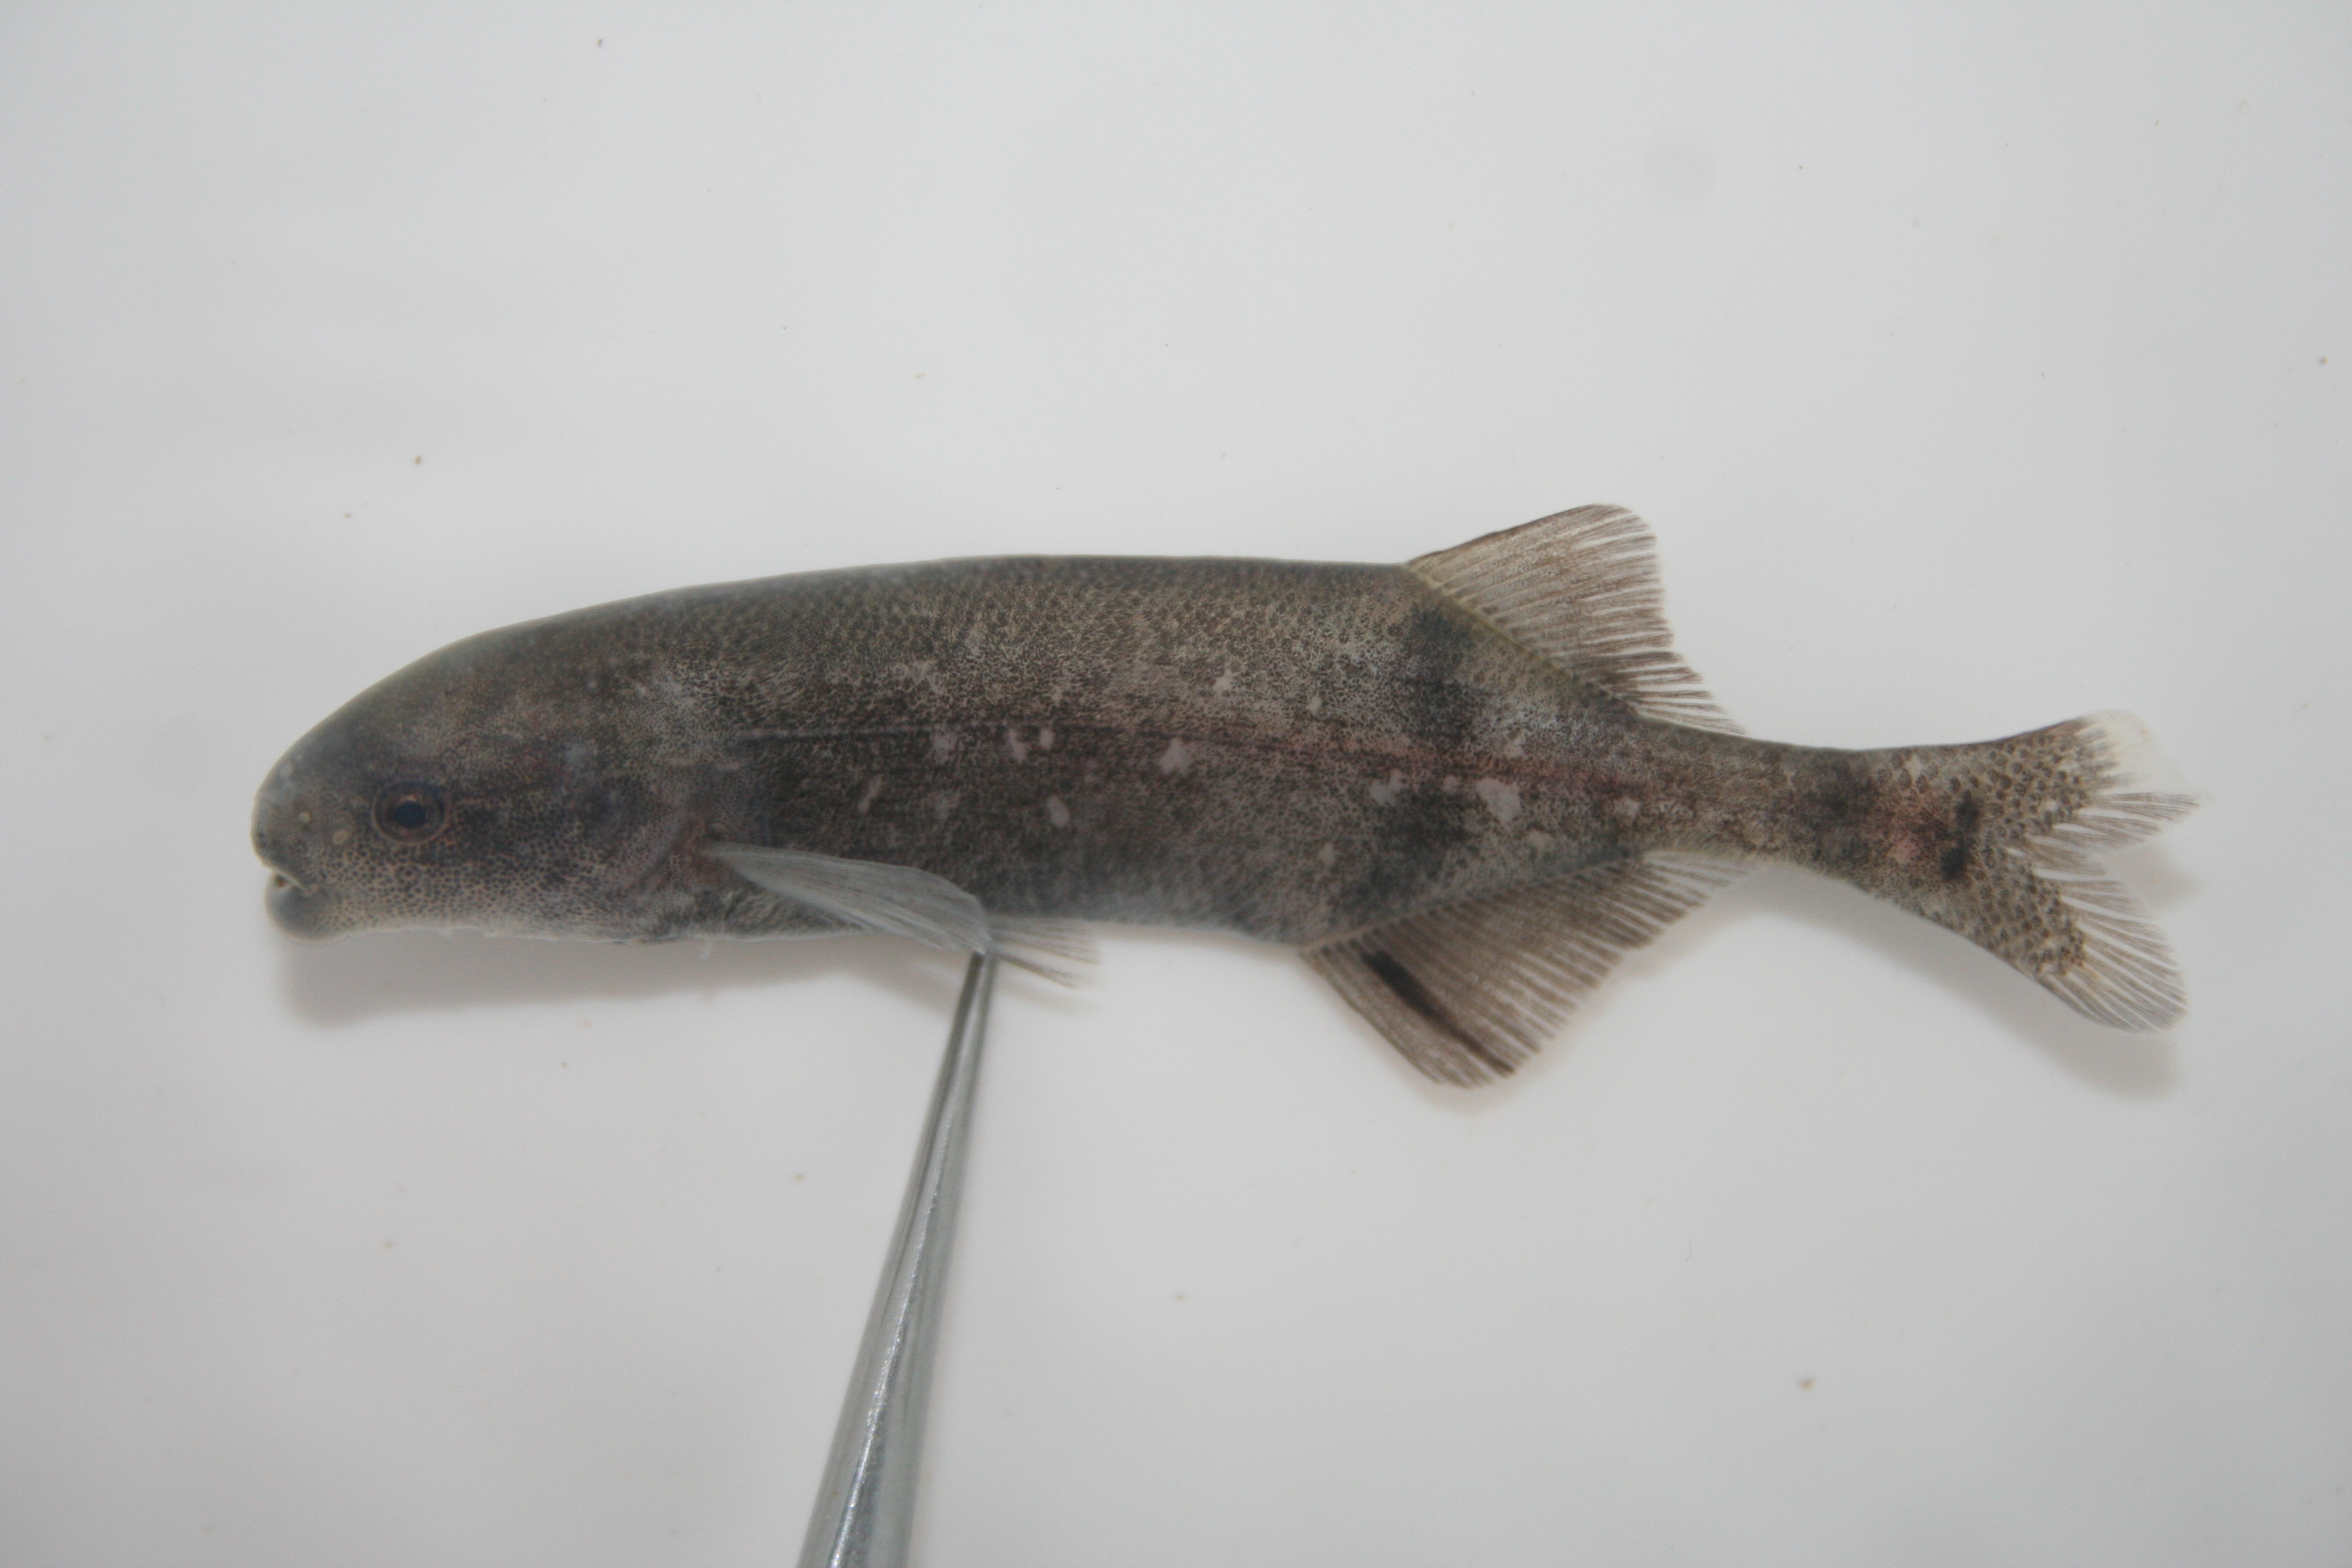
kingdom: Animalia
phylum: Chordata
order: Osteoglossiformes
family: Mormyridae
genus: Hippopotamyrus
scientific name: Hippopotamyrus
